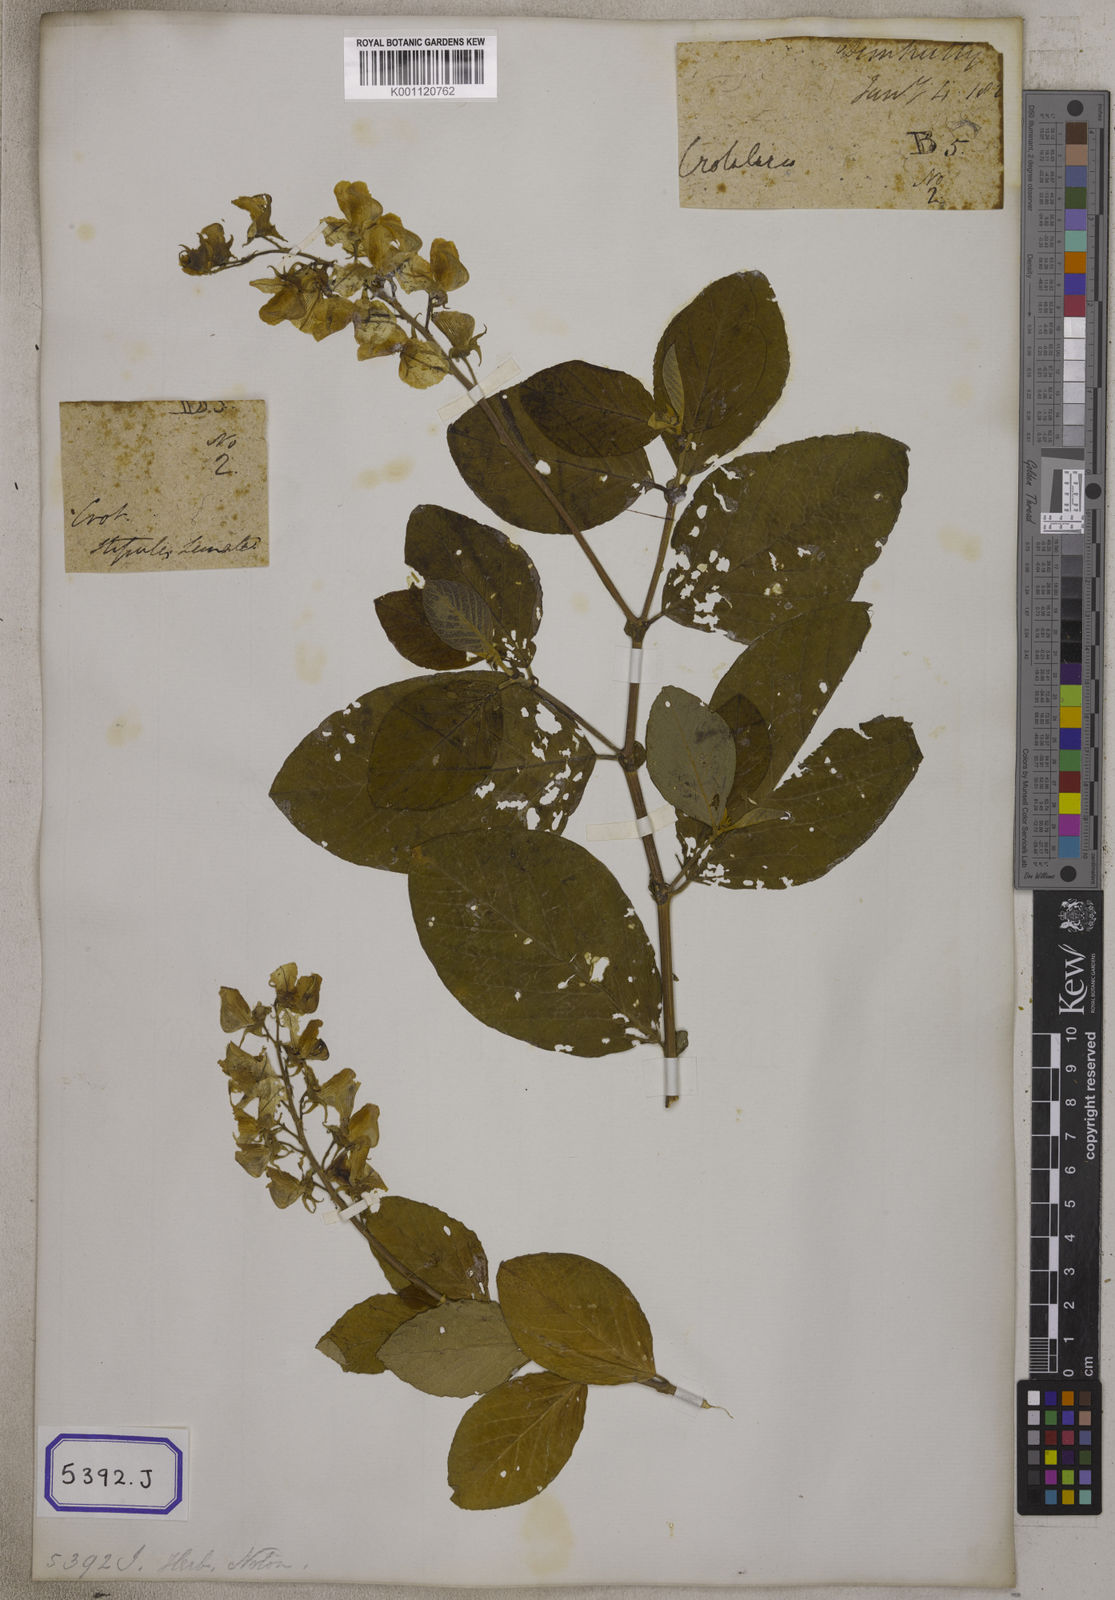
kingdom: Plantae
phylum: Tracheophyta
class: Magnoliopsida
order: Fabales
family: Fabaceae
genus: Crotalaria
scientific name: Crotalaria verrucosa
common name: Blue rattlesnake
